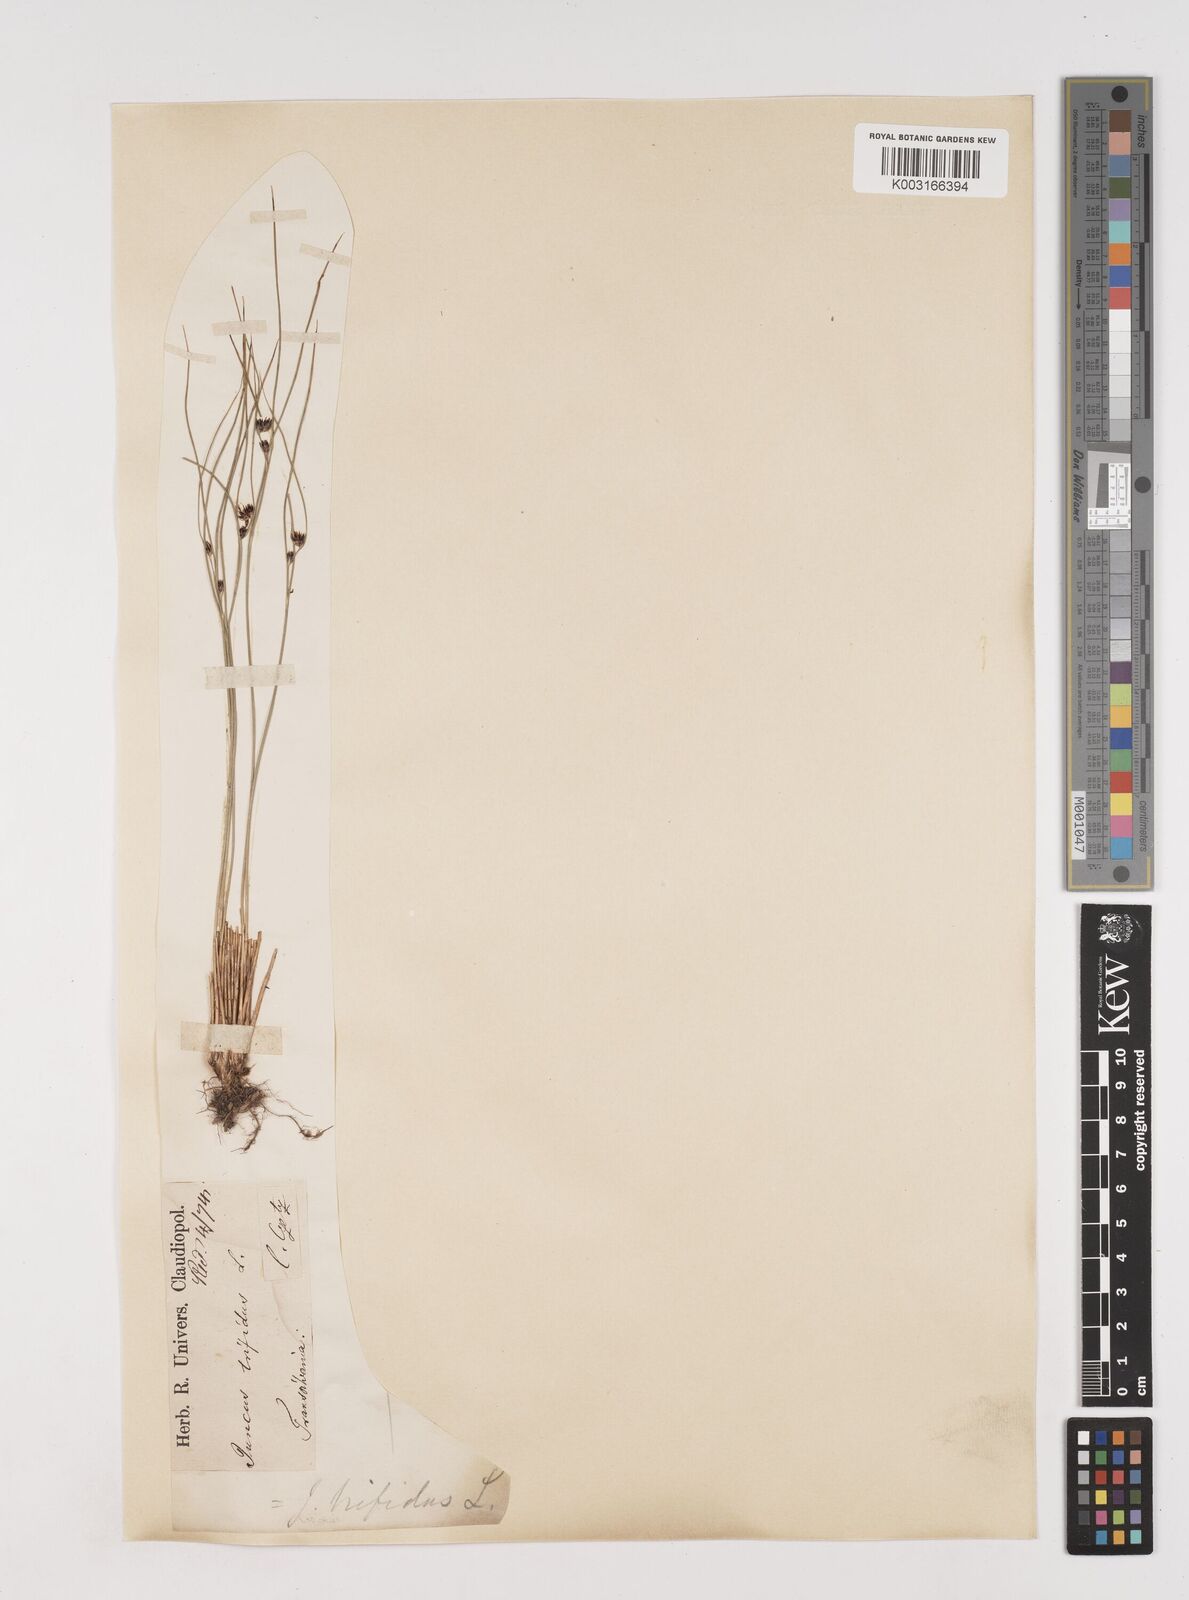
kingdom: Plantae
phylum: Tracheophyta
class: Liliopsida
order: Poales
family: Juncaceae
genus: Oreojuncus
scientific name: Oreojuncus trifidus
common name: Highland rush
